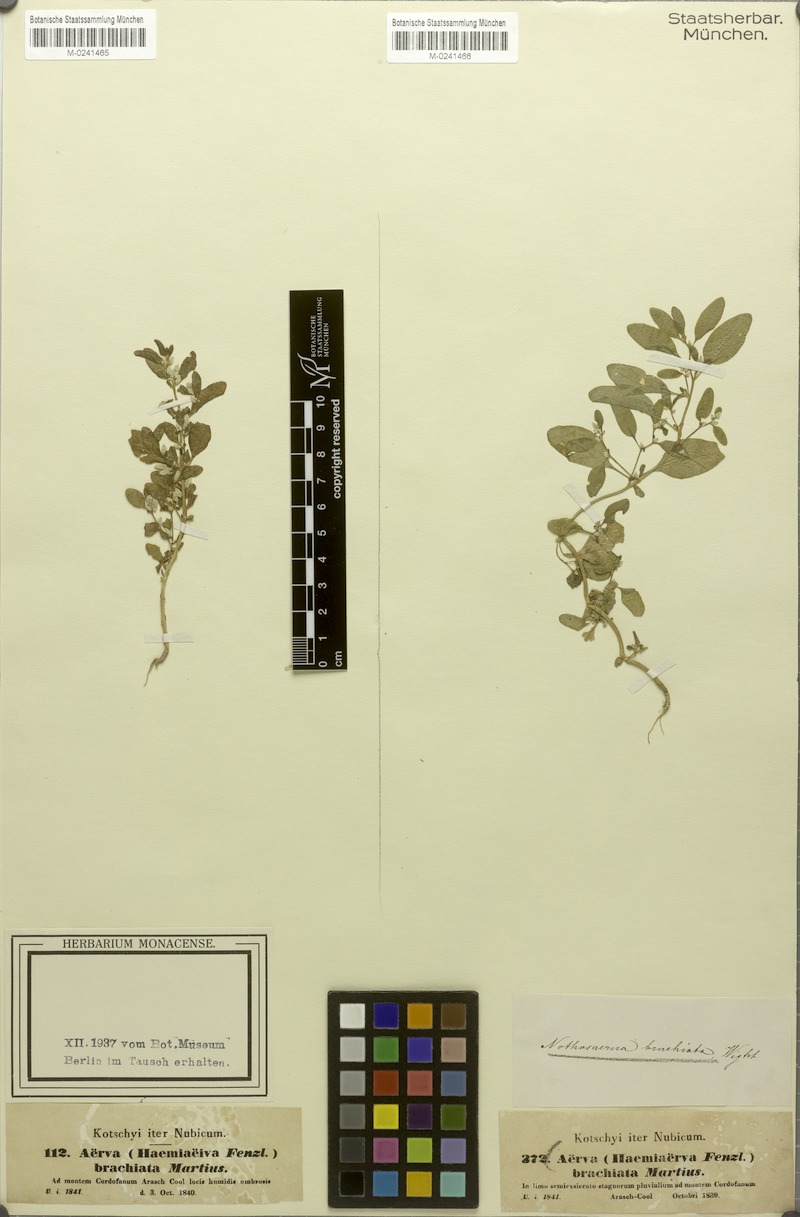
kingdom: Plantae
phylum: Tracheophyta
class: Magnoliopsida
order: Caryophyllales
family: Amaranthaceae
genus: Nothosaerva
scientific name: Nothosaerva brachiata
